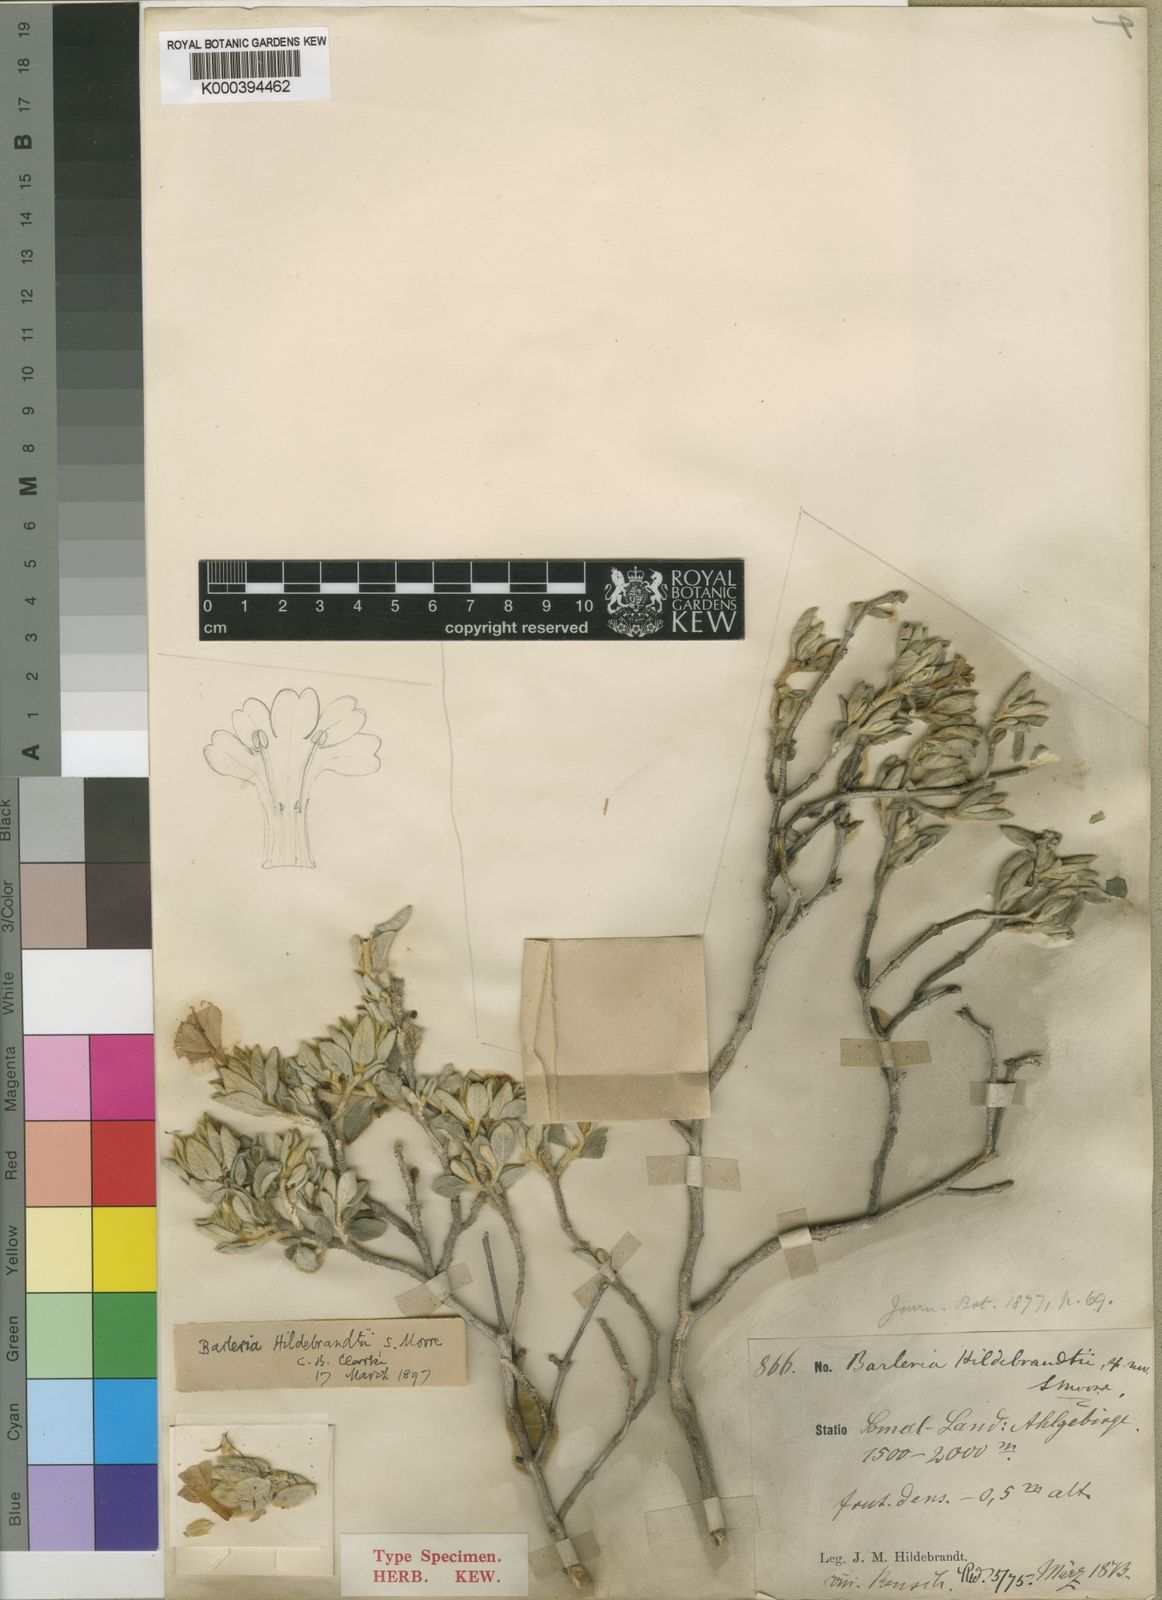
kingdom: Plantae
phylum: Tracheophyta
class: Magnoliopsida
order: Lamiales
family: Acanthaceae
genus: Barleria
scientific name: Barleria hildebrandtii
